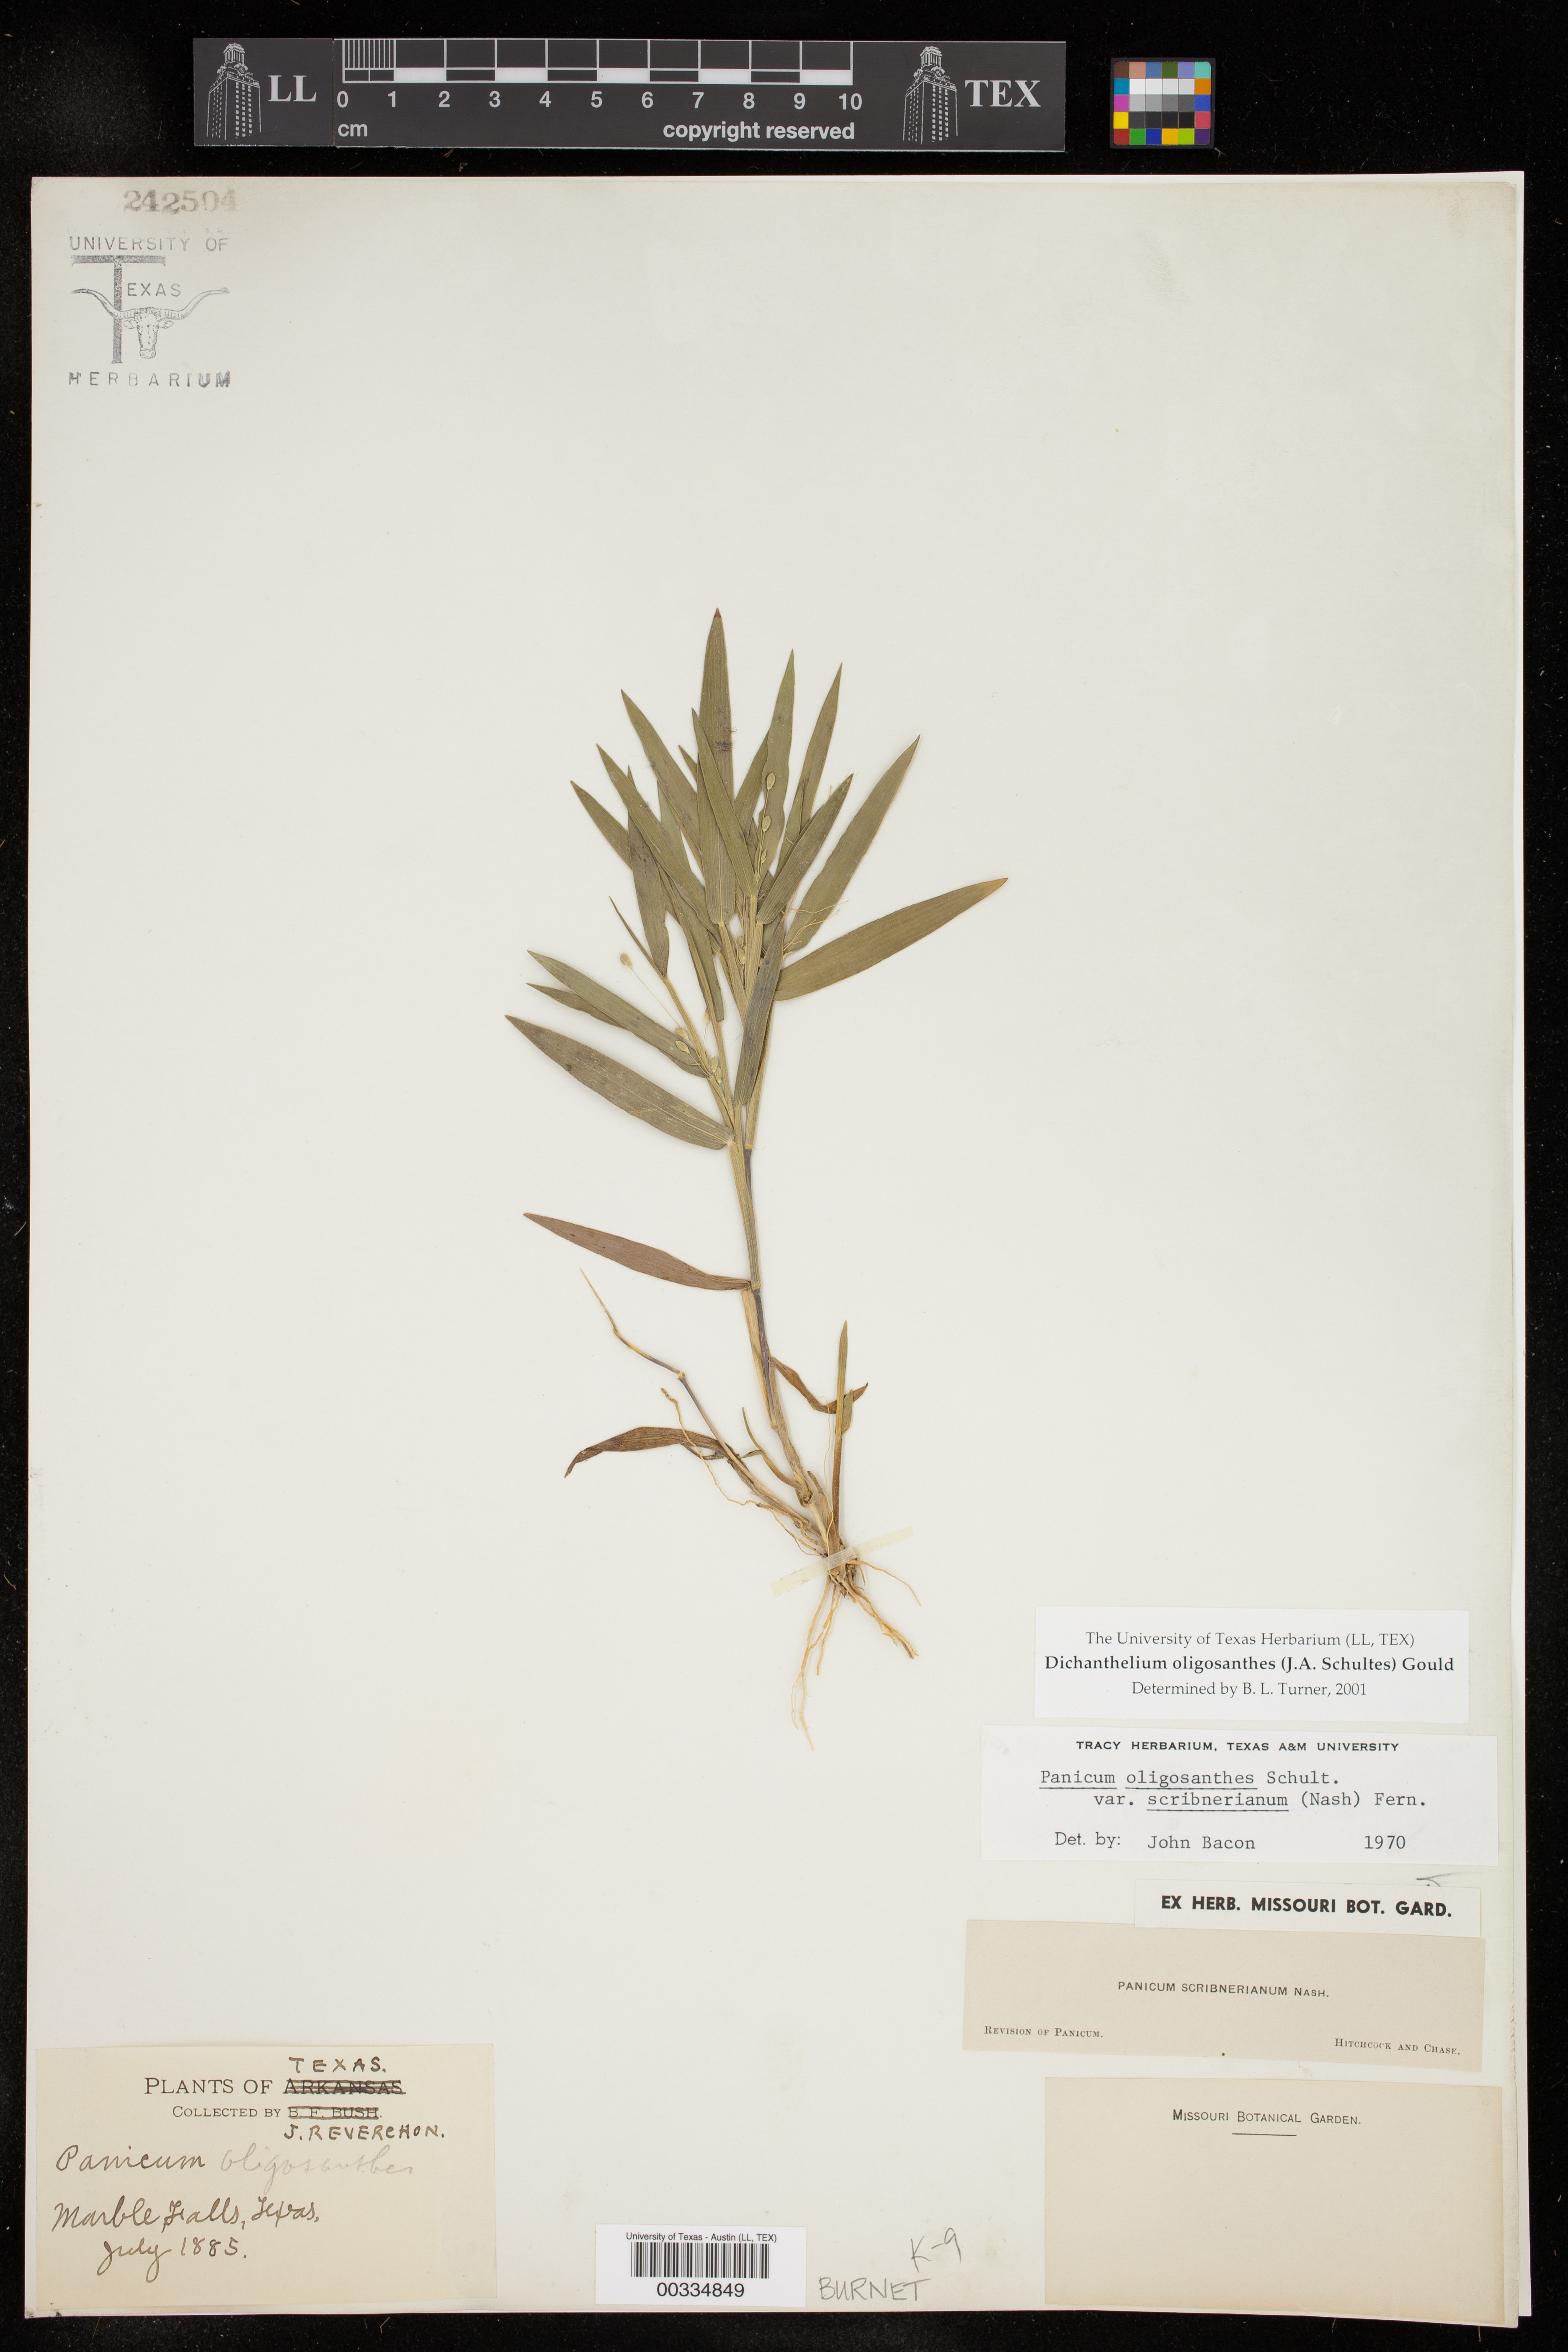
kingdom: Plantae
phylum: Tracheophyta
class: Liliopsida
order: Poales
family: Poaceae
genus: Dichanthelium
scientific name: Dichanthelium oligosanthes
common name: Few-anther obscuregrass
